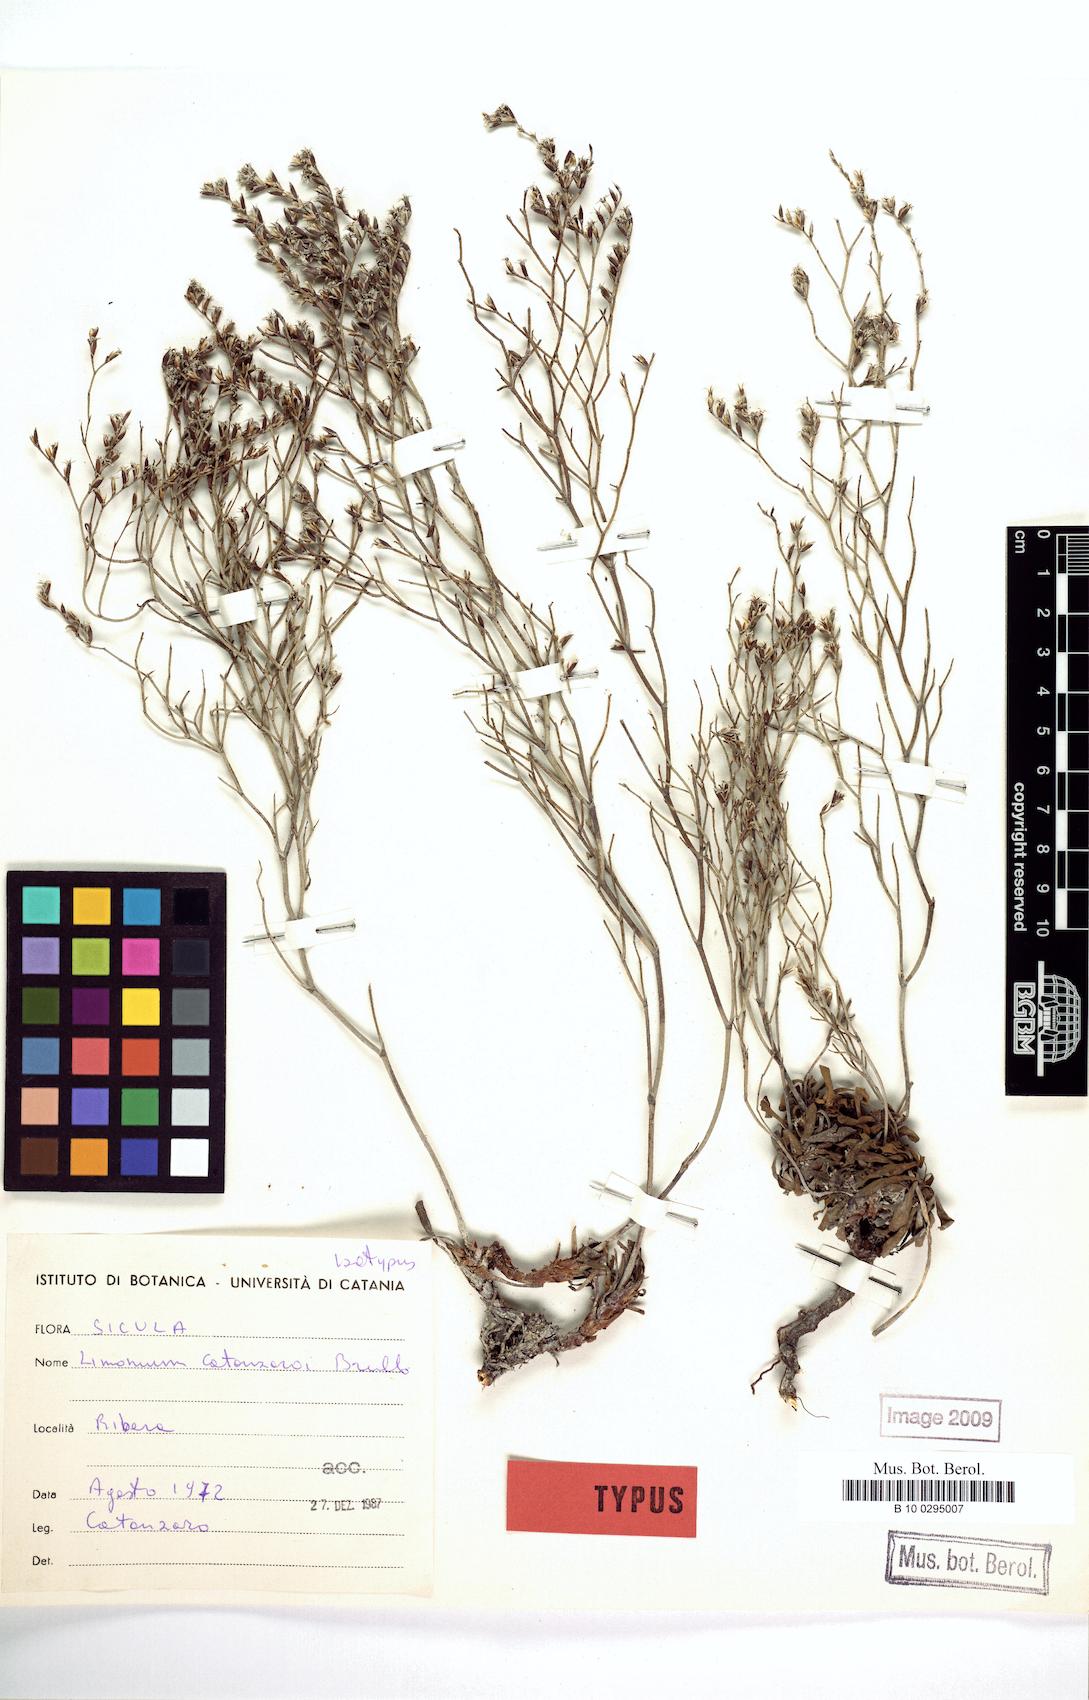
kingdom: Plantae
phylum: Tracheophyta
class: Magnoliopsida
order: Caryophyllales
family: Plumbaginaceae
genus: Limonium
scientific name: Limonium catanzaroi
